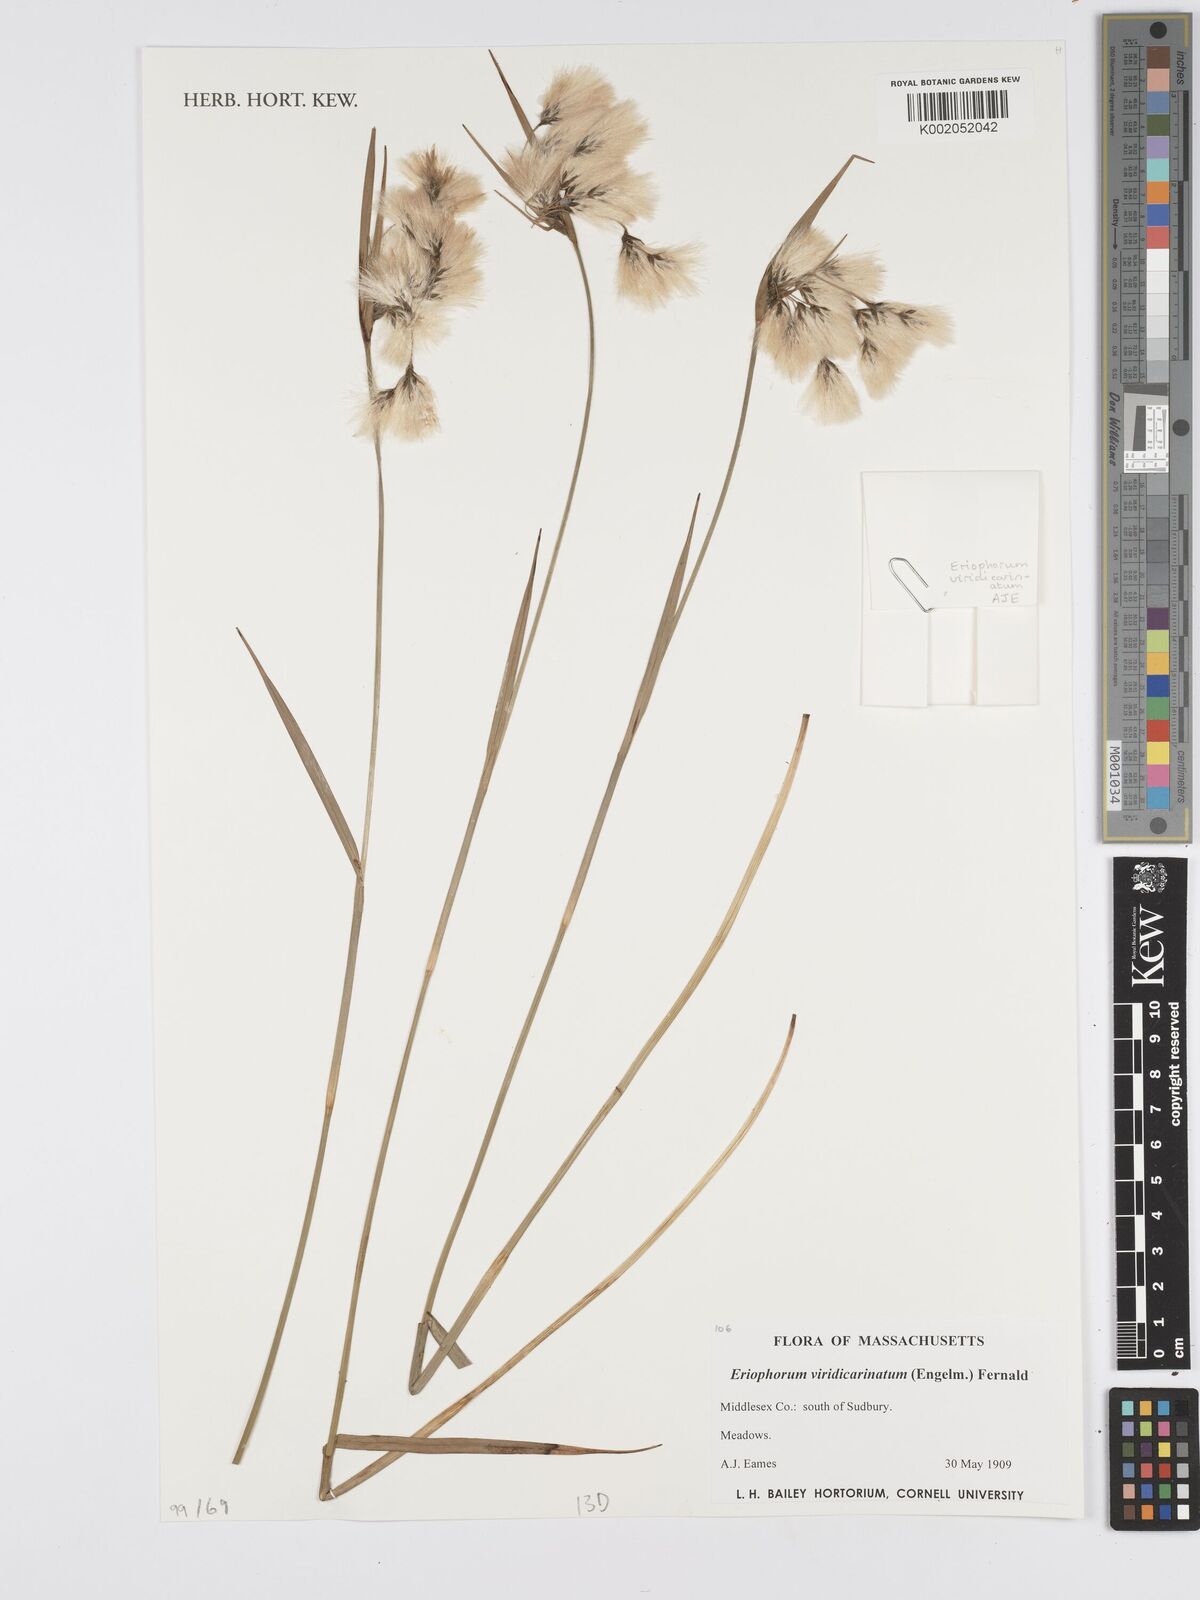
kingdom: Plantae
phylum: Tracheophyta
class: Liliopsida
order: Poales
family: Cyperaceae
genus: Eriophorum
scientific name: Eriophorum viridicarinatum
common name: Green-keeled cottongrass
